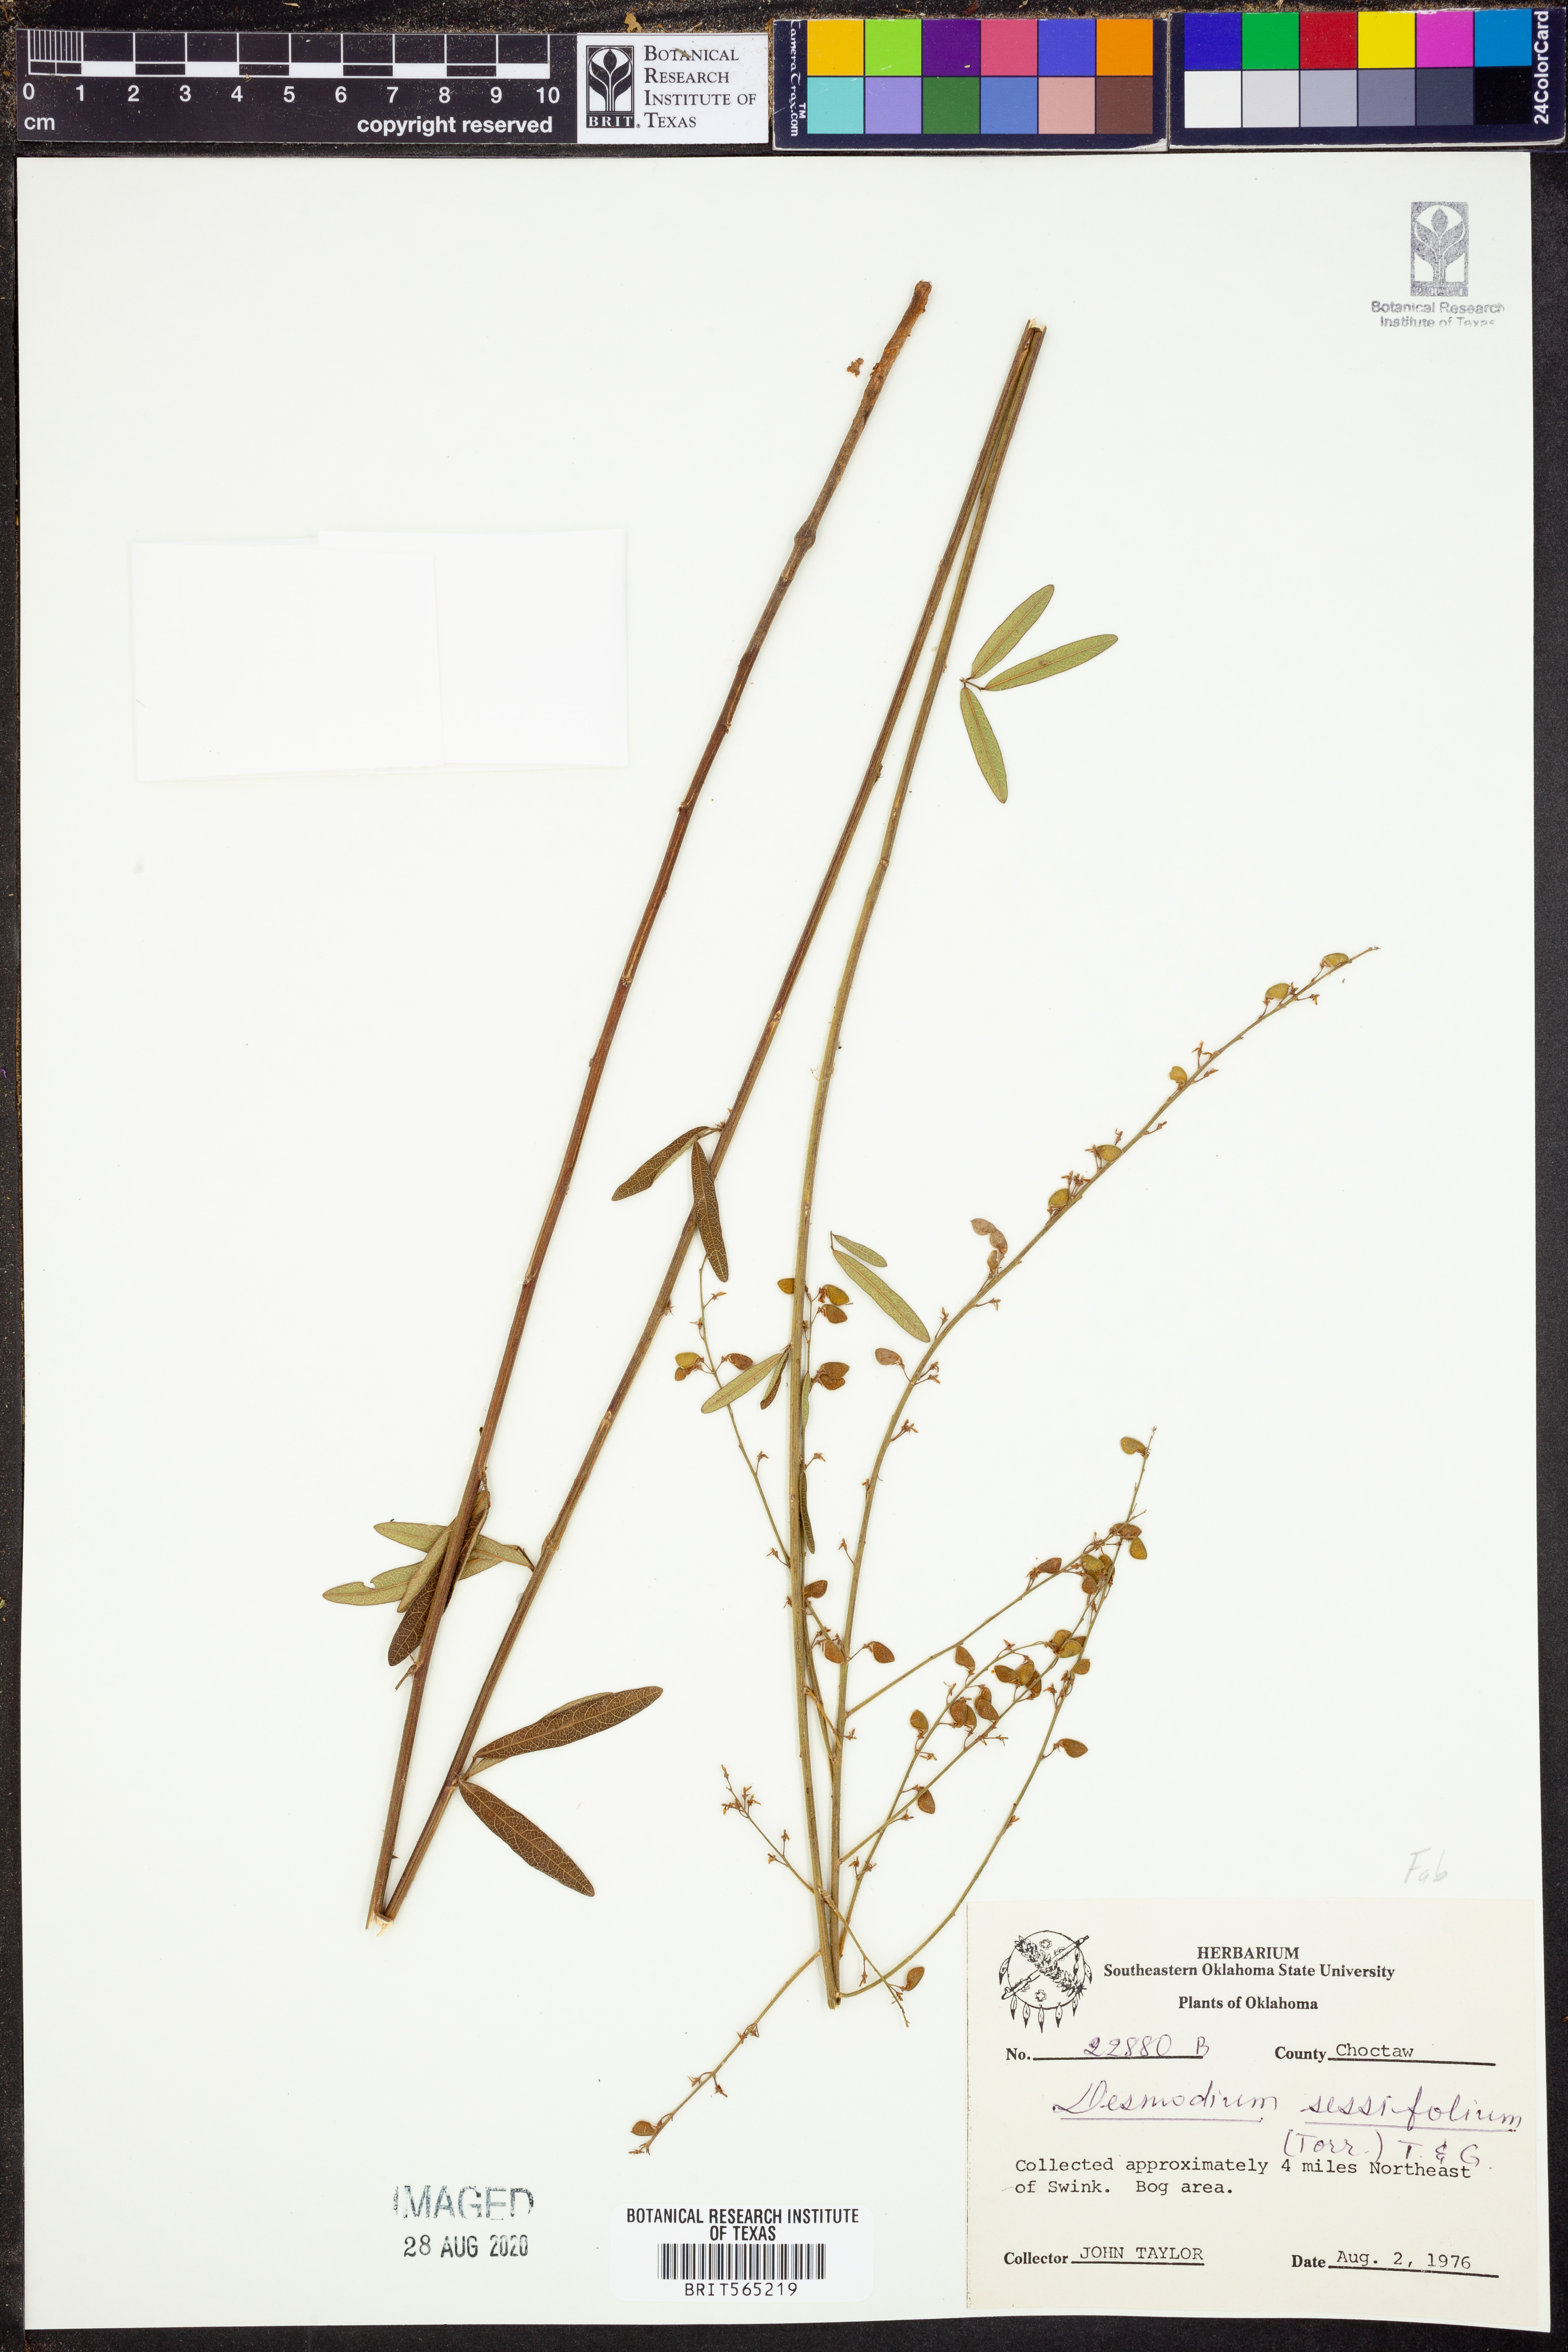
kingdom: Plantae
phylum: Tracheophyta
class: Magnoliopsida
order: Fabales
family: Fabaceae
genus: Desmodium
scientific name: Desmodium sessilifolium
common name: Sessile tick-clover
